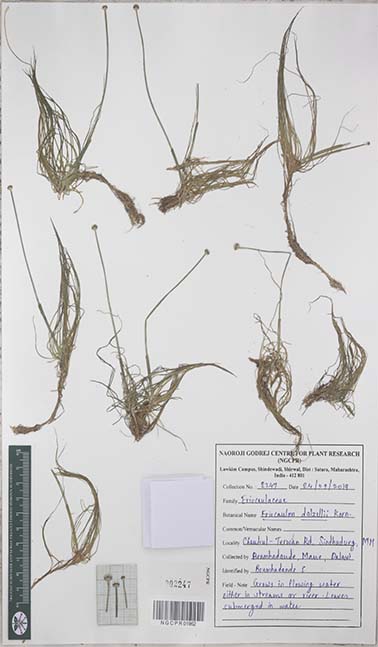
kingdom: Plantae
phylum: Tracheophyta
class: Liliopsida
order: Poales
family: Eriocaulaceae
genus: Eriocaulon
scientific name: Eriocaulon dalzellii
